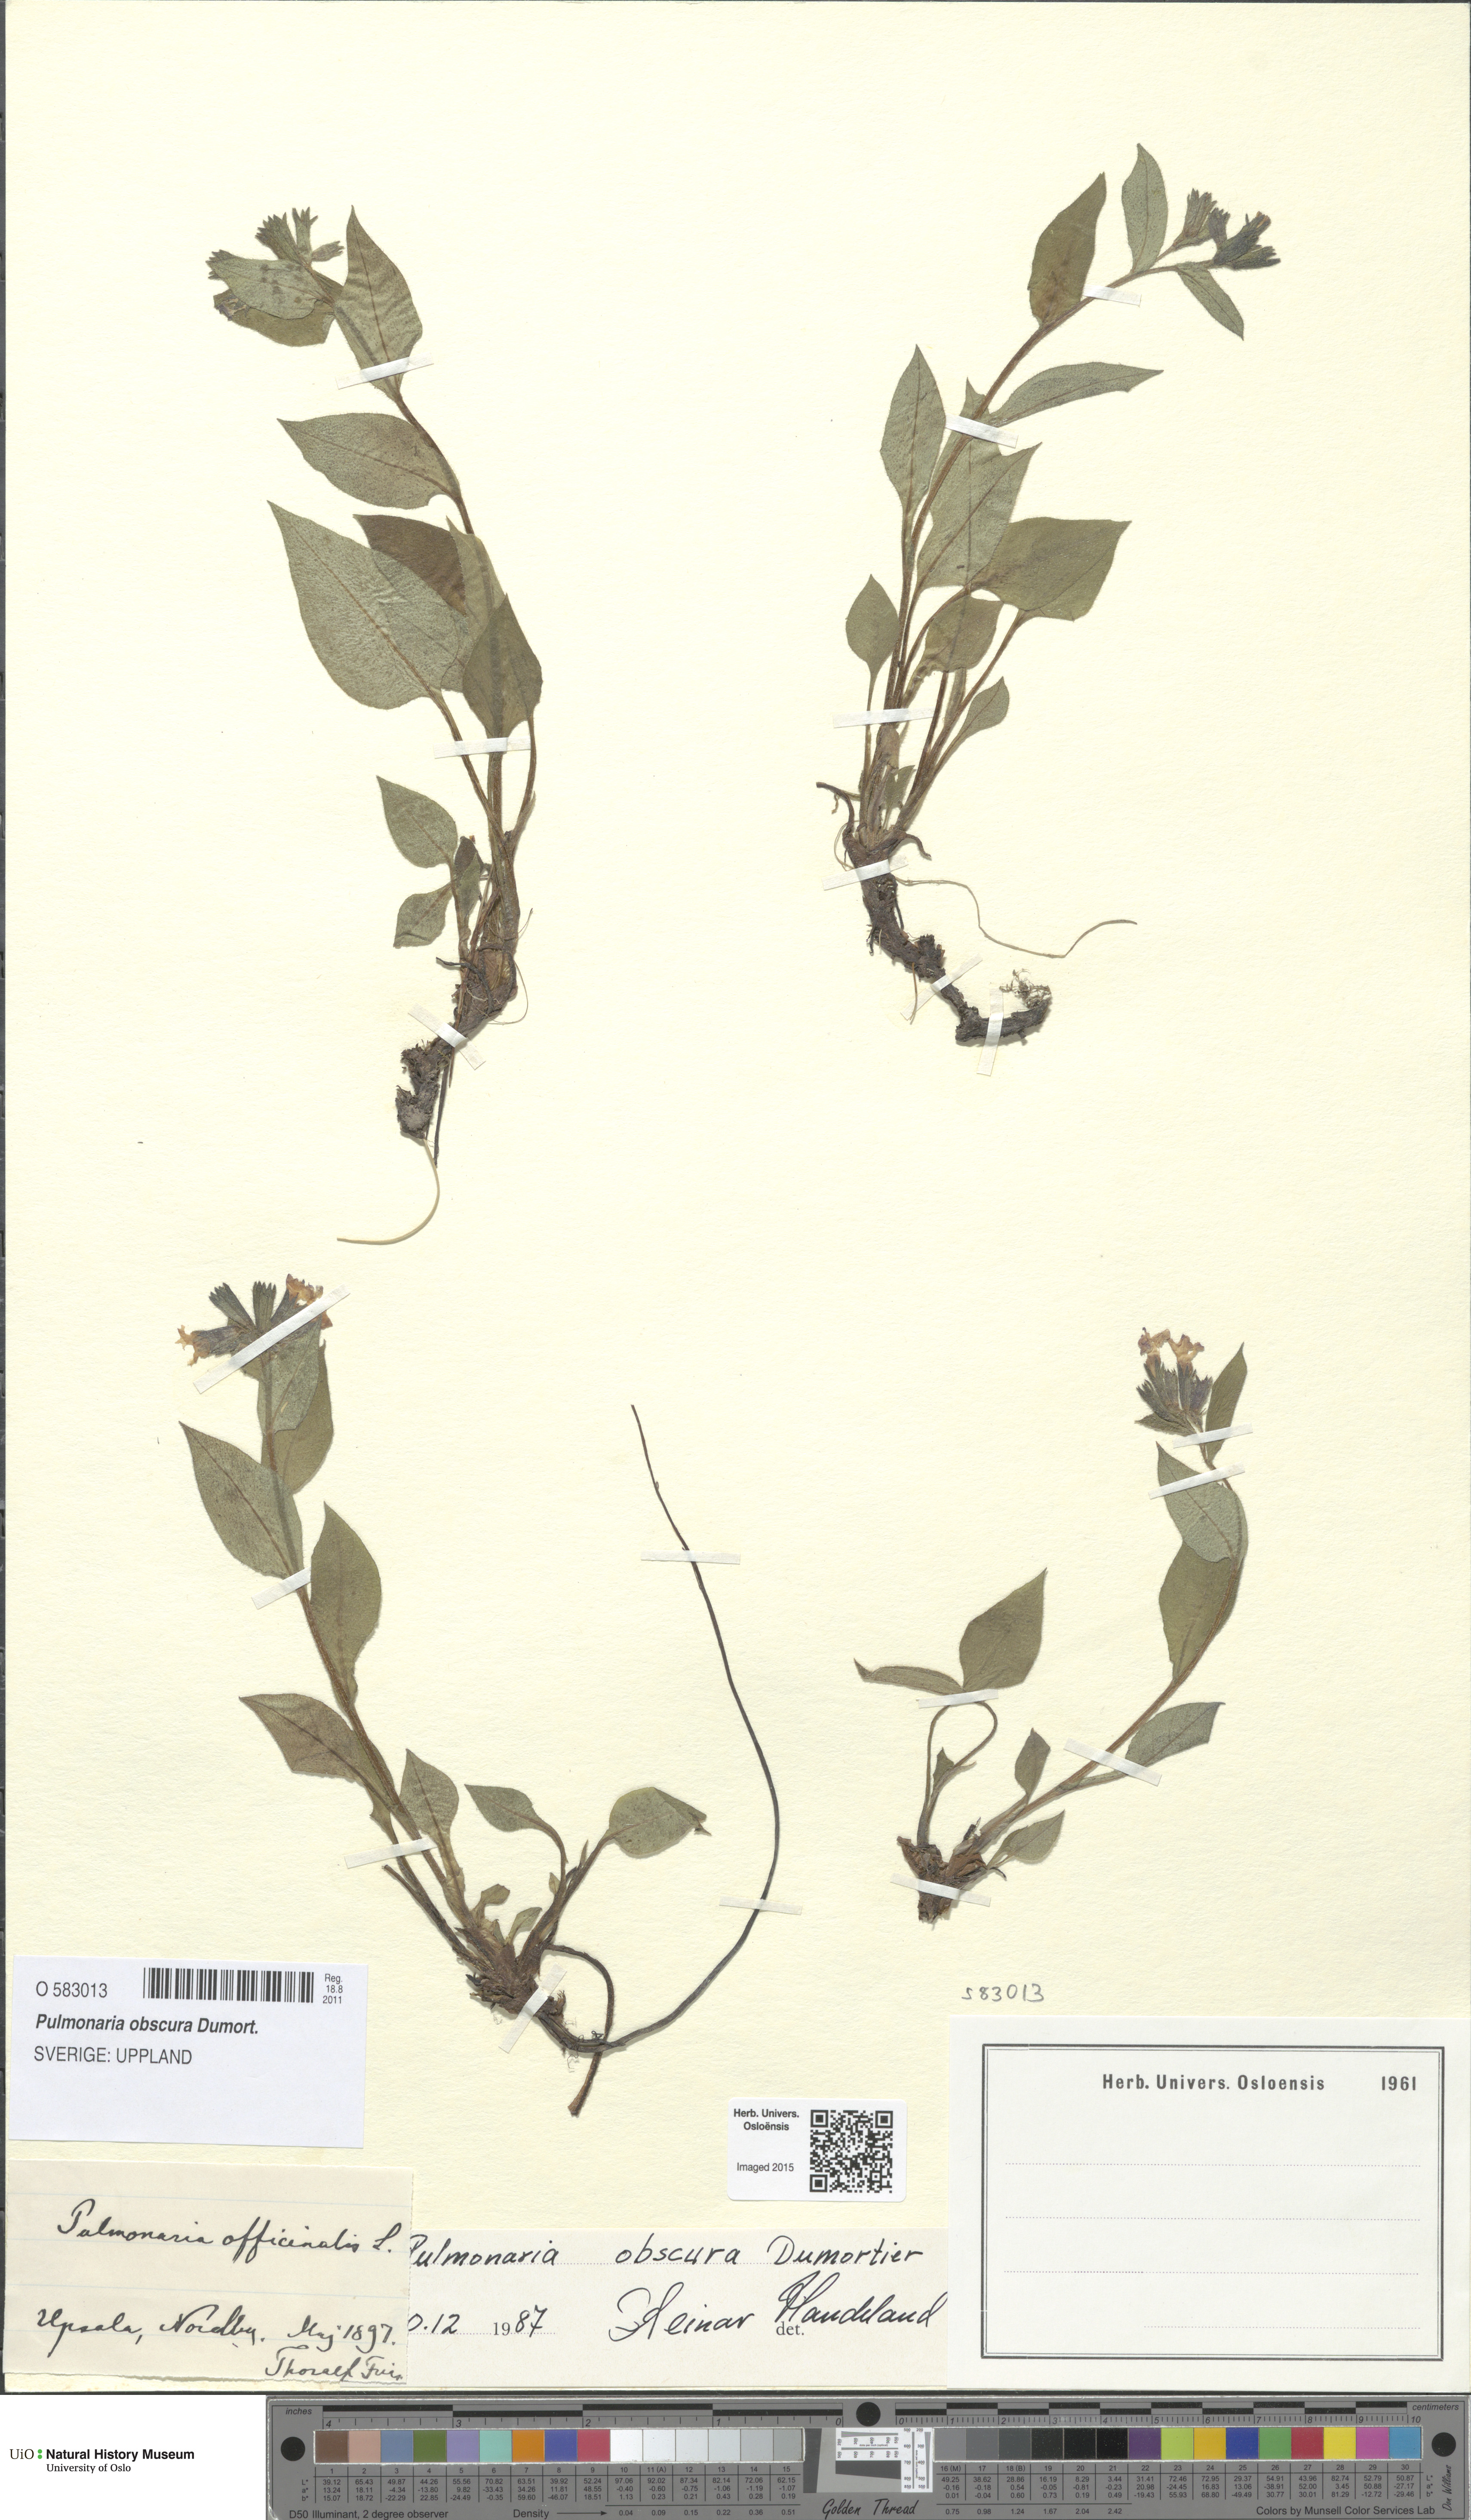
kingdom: Plantae
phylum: Tracheophyta
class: Magnoliopsida
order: Boraginales
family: Boraginaceae
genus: Pulmonaria
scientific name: Pulmonaria obscura
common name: Suffolk lungwort
